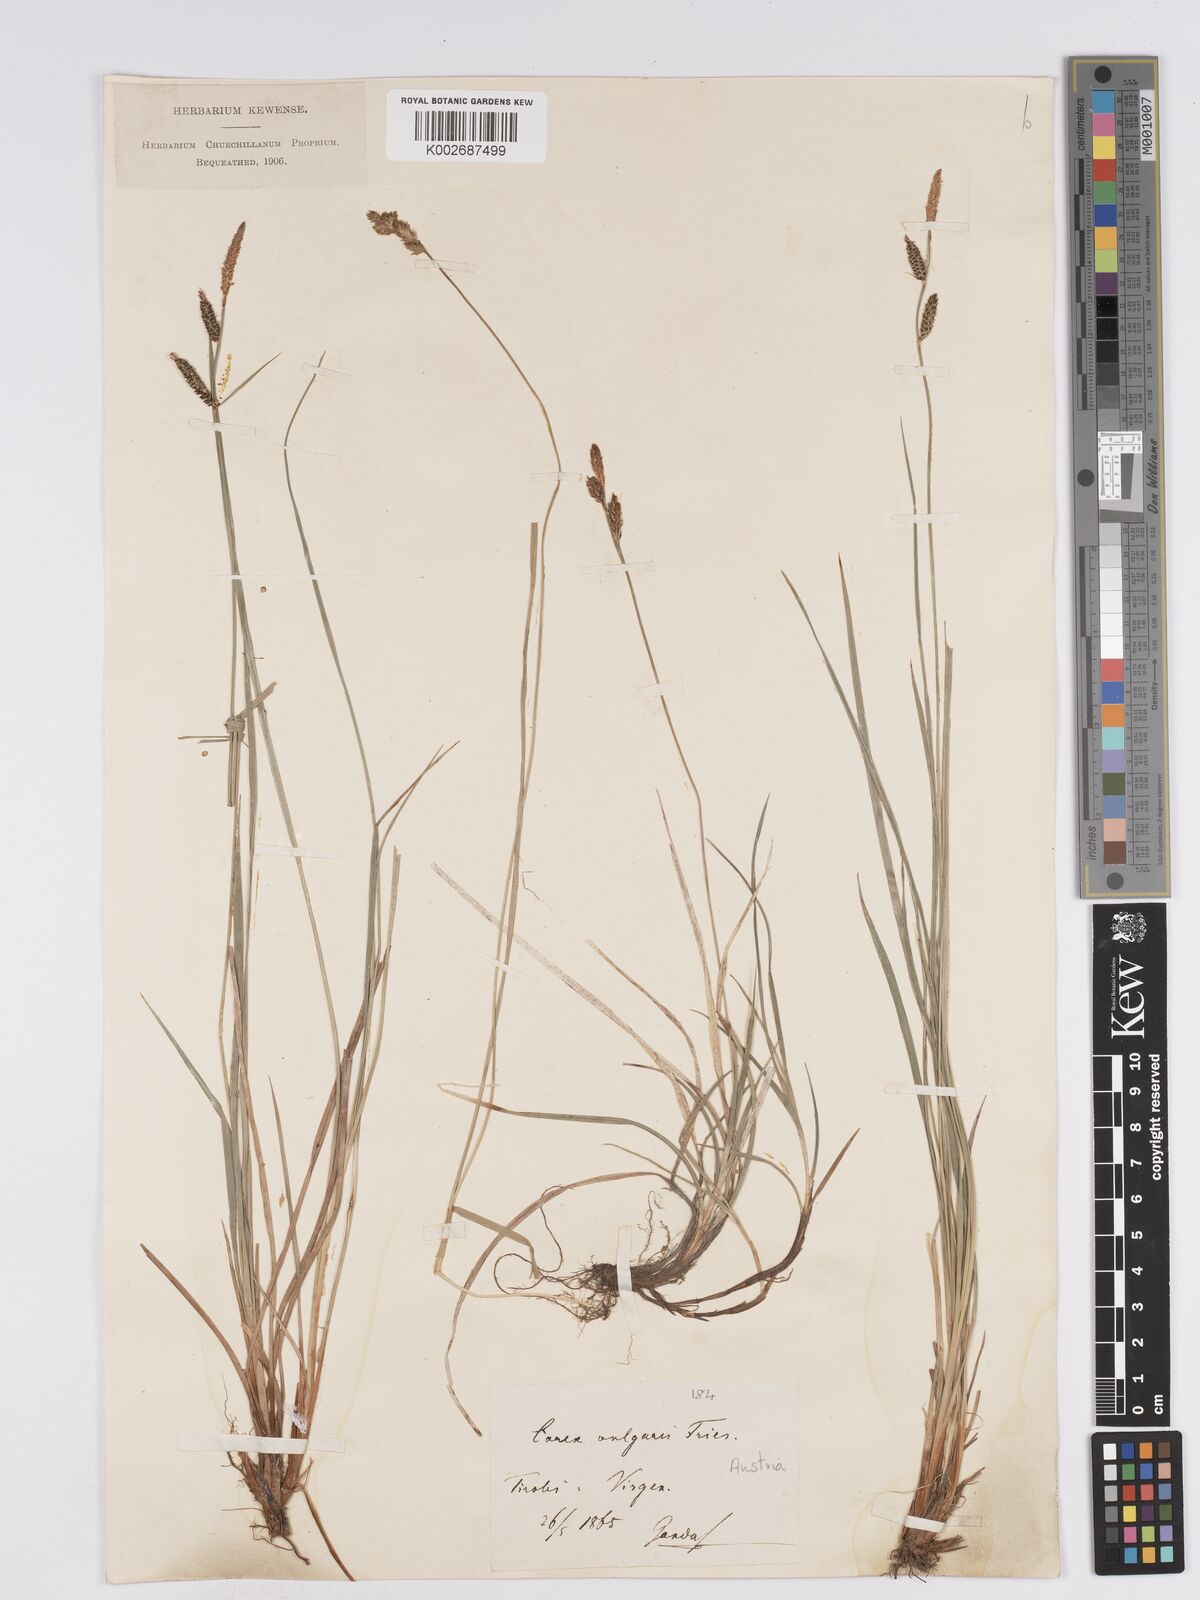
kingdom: Plantae
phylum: Tracheophyta
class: Liliopsida
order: Poales
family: Cyperaceae
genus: Carex
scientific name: Carex nigra
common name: Common sedge
